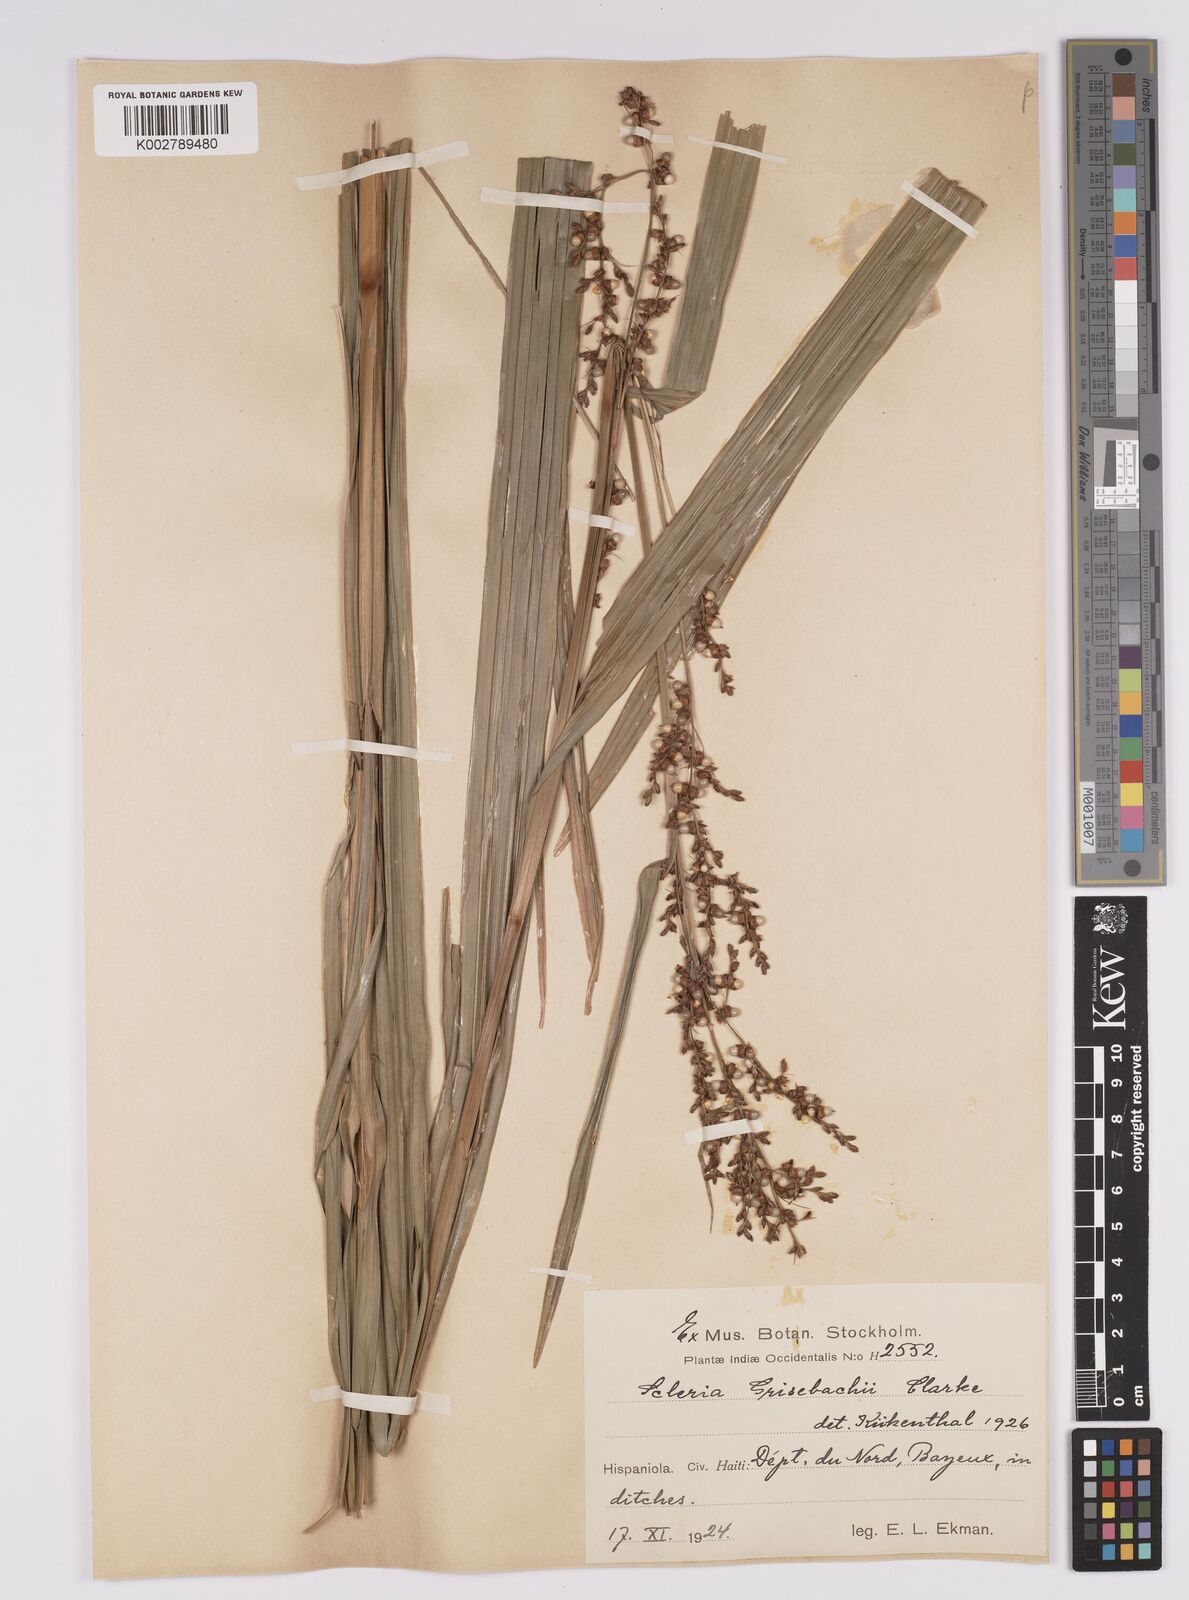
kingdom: Plantae
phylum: Tracheophyta
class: Liliopsida
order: Poales
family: Cyperaceae
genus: Scleria
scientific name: Scleria eggersiana
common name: Eggers' nutrush
